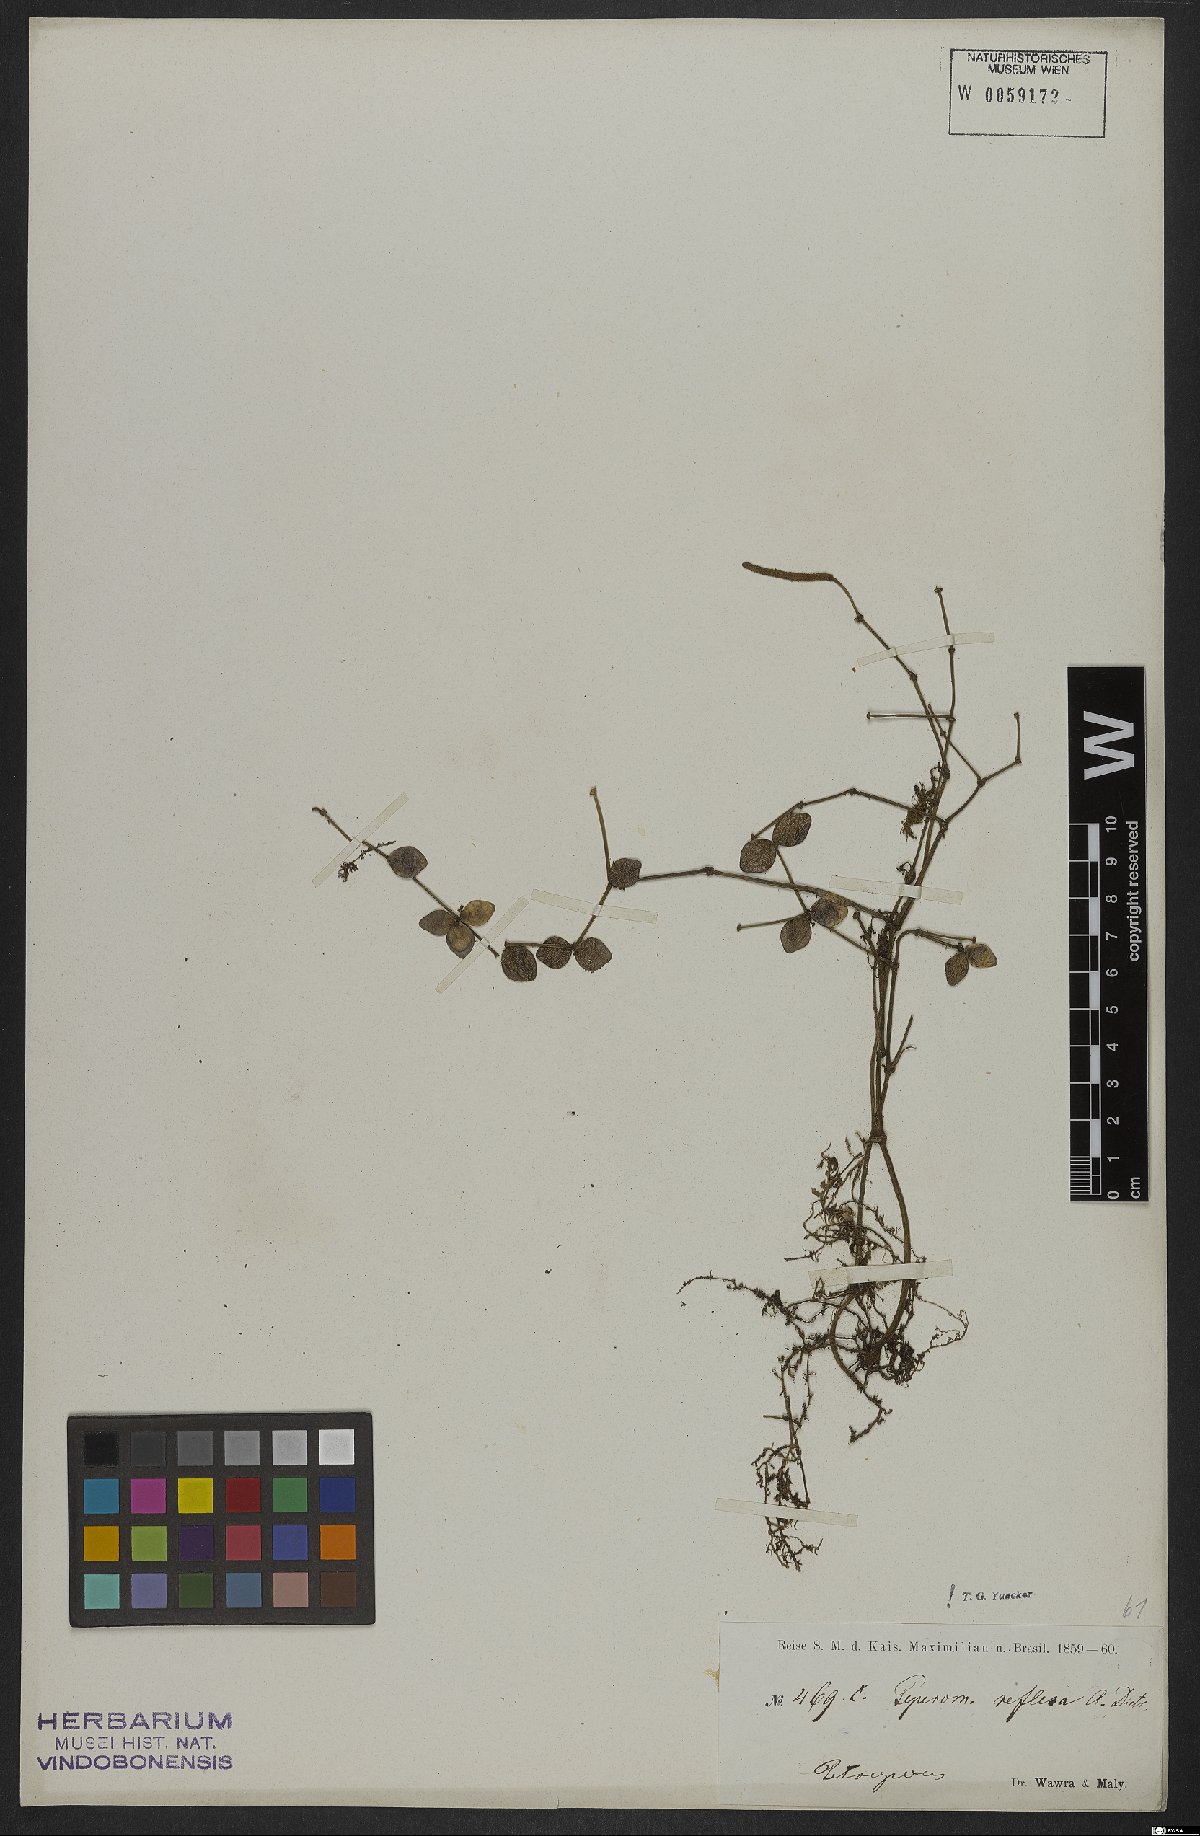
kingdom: Plantae
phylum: Tracheophyta
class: Magnoliopsida
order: Piperales
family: Piperaceae
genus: Peperomia
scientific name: Peperomia tetraphylla
